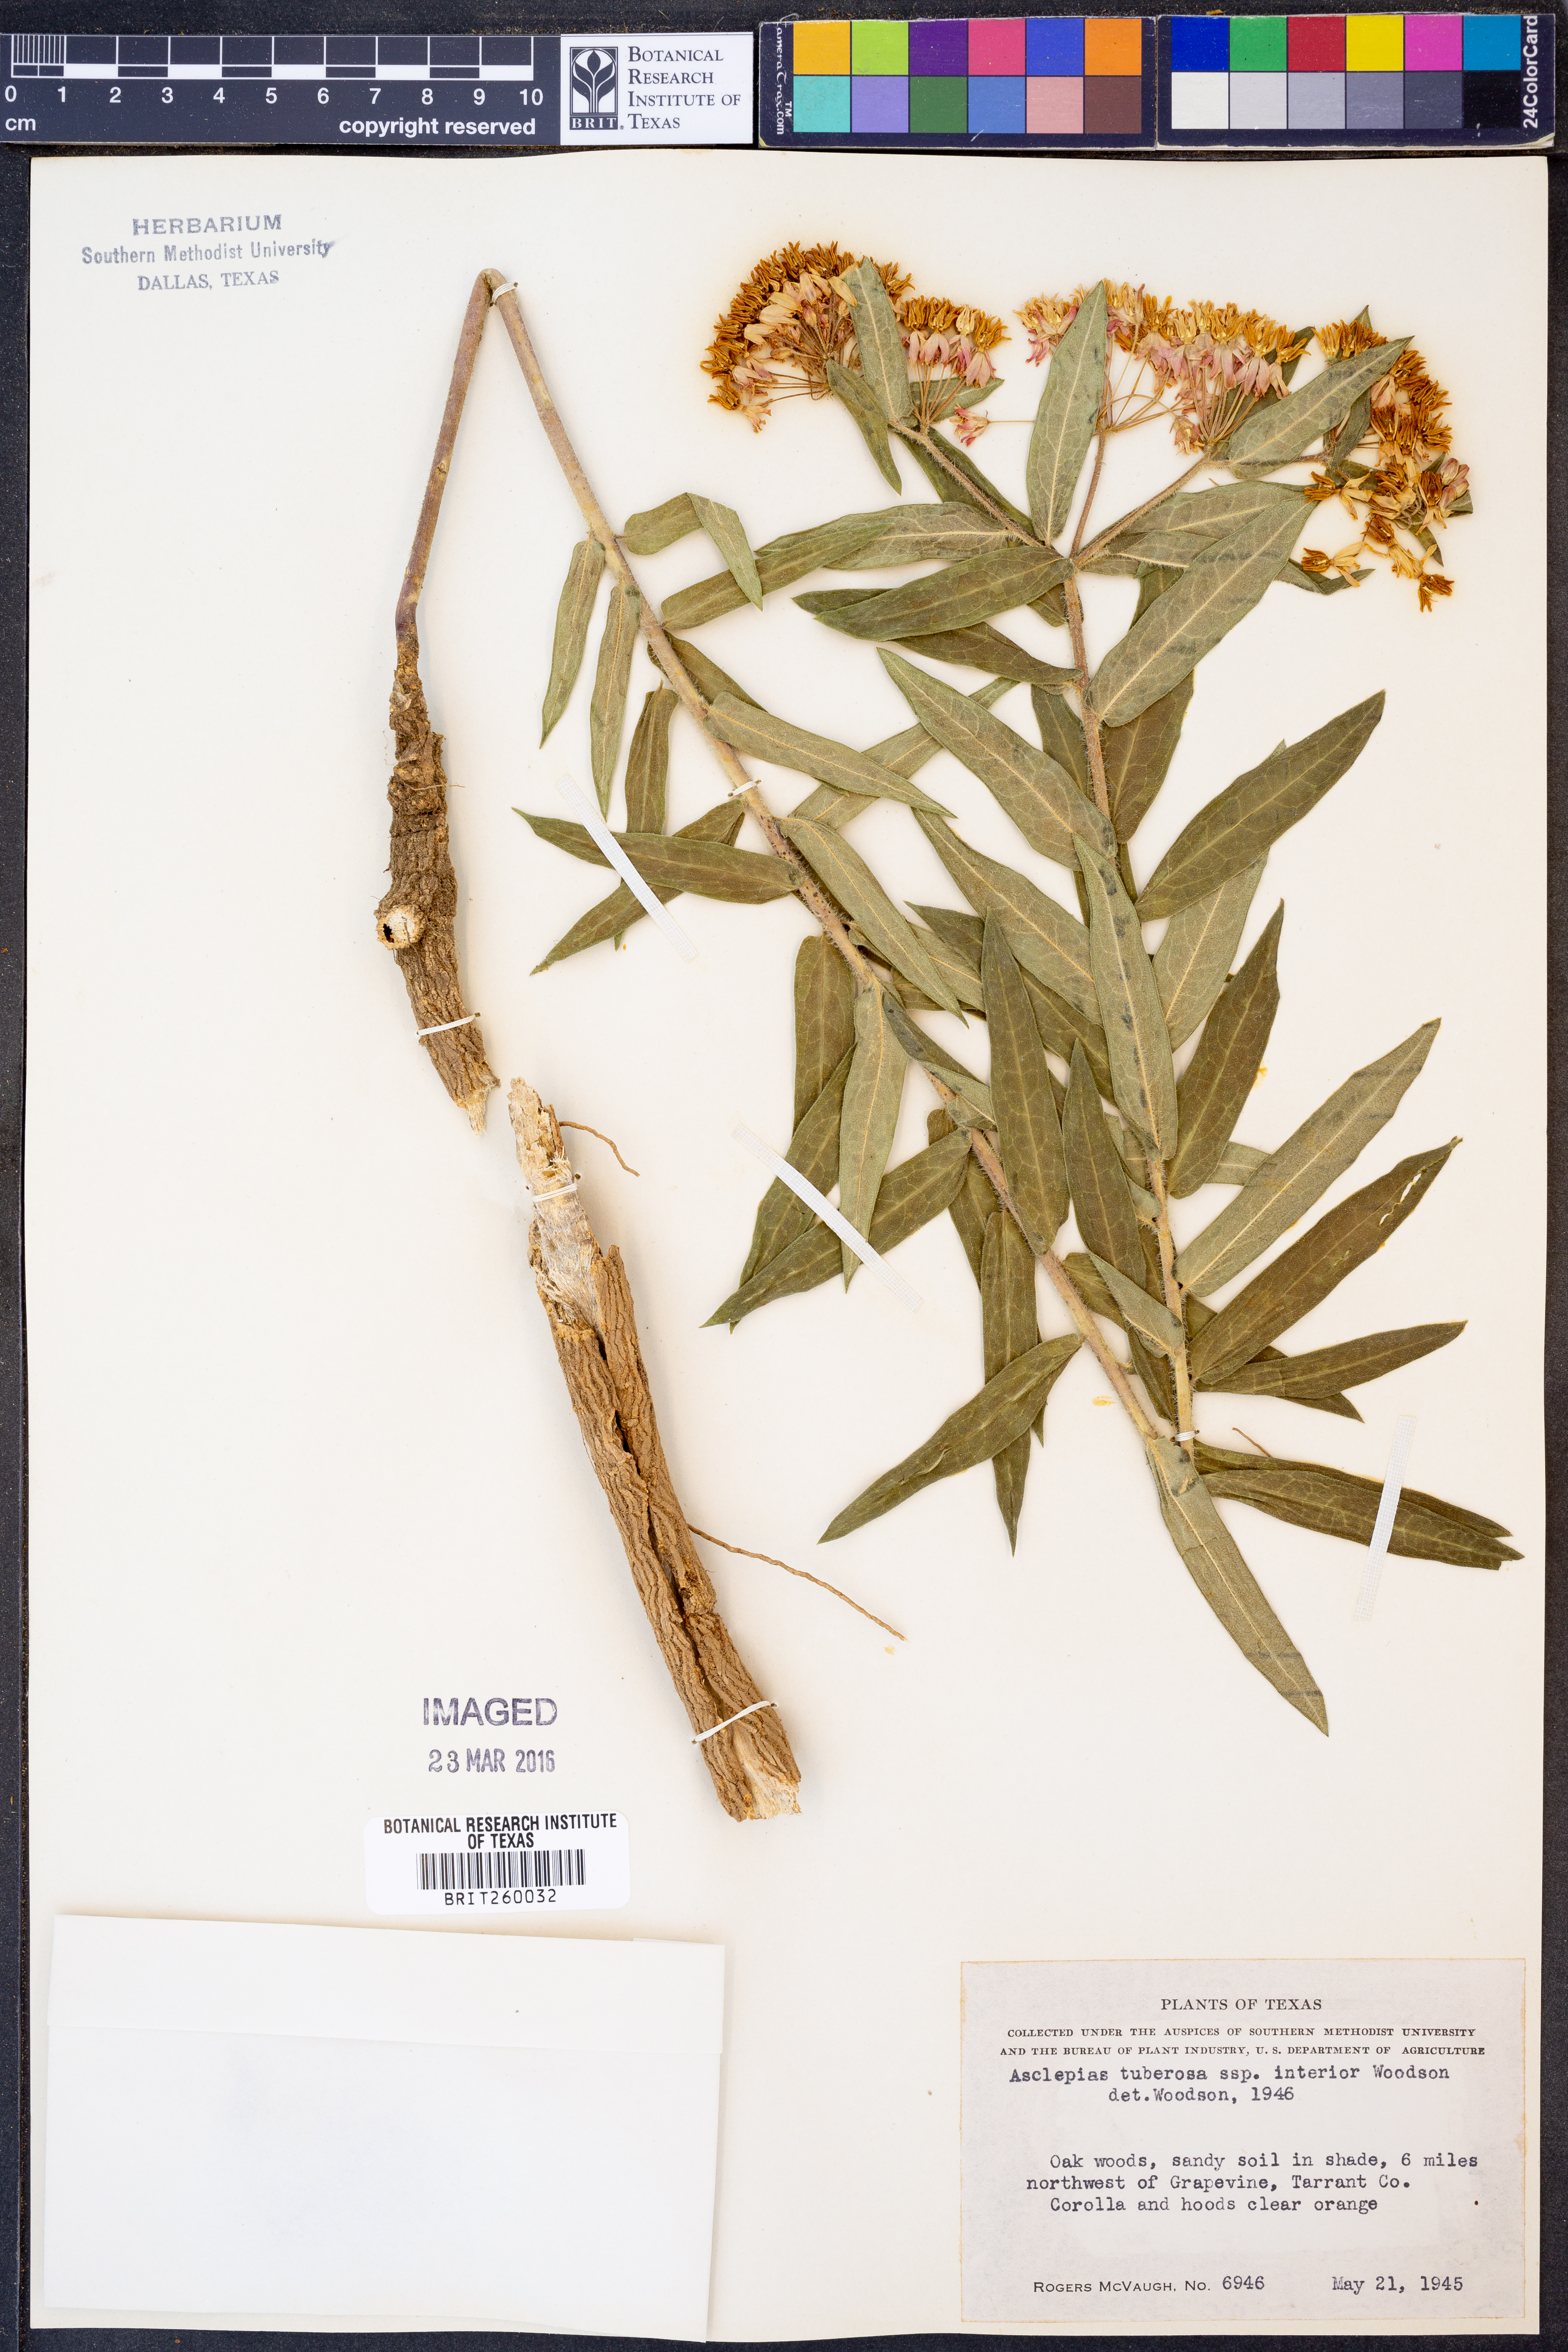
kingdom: Plantae
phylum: Tracheophyta
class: Magnoliopsida
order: Gentianales
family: Apocynaceae
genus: Asclepias
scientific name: Asclepias tuberosa
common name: Butterfly milkweed
